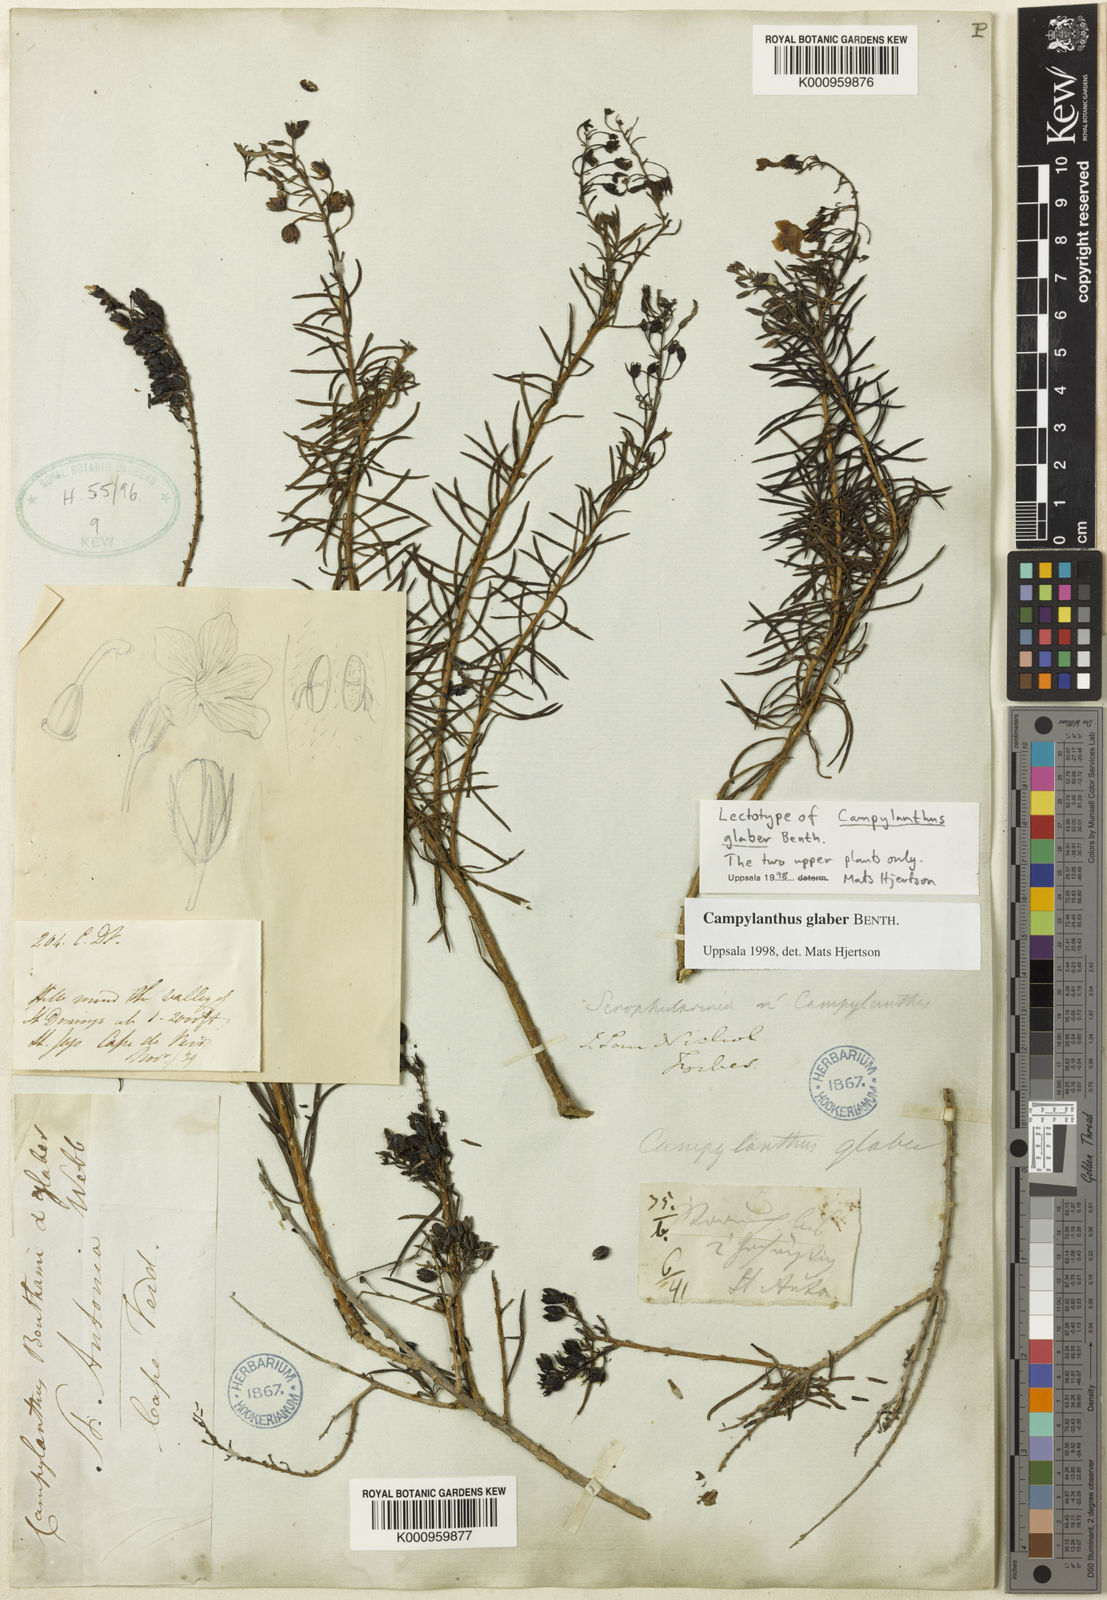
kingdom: Plantae
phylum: Tracheophyta
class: Magnoliopsida
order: Lamiales
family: Plantaginaceae
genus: Campylanthus
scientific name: Campylanthus glaber
